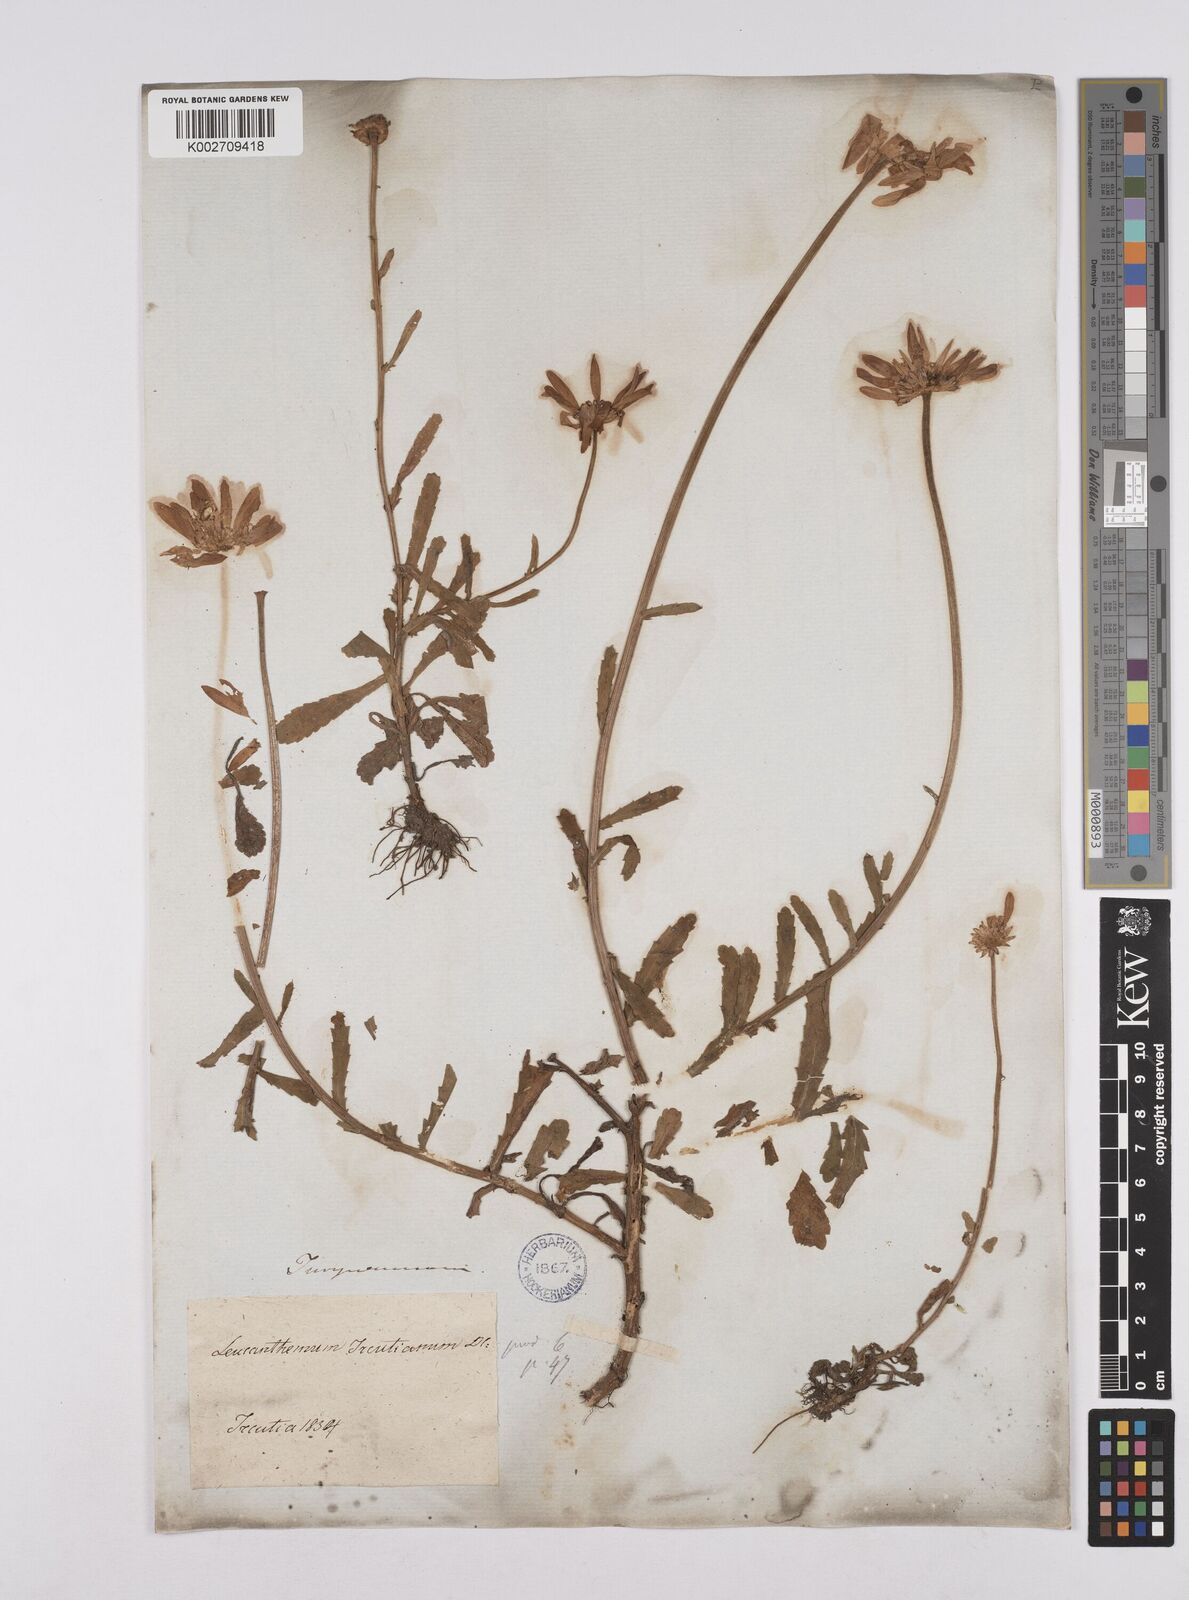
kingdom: Plantae
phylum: Tracheophyta
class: Magnoliopsida
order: Asterales
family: Asteraceae
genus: Leucanthemum
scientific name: Leucanthemum vulgare
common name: Oxeye daisy
